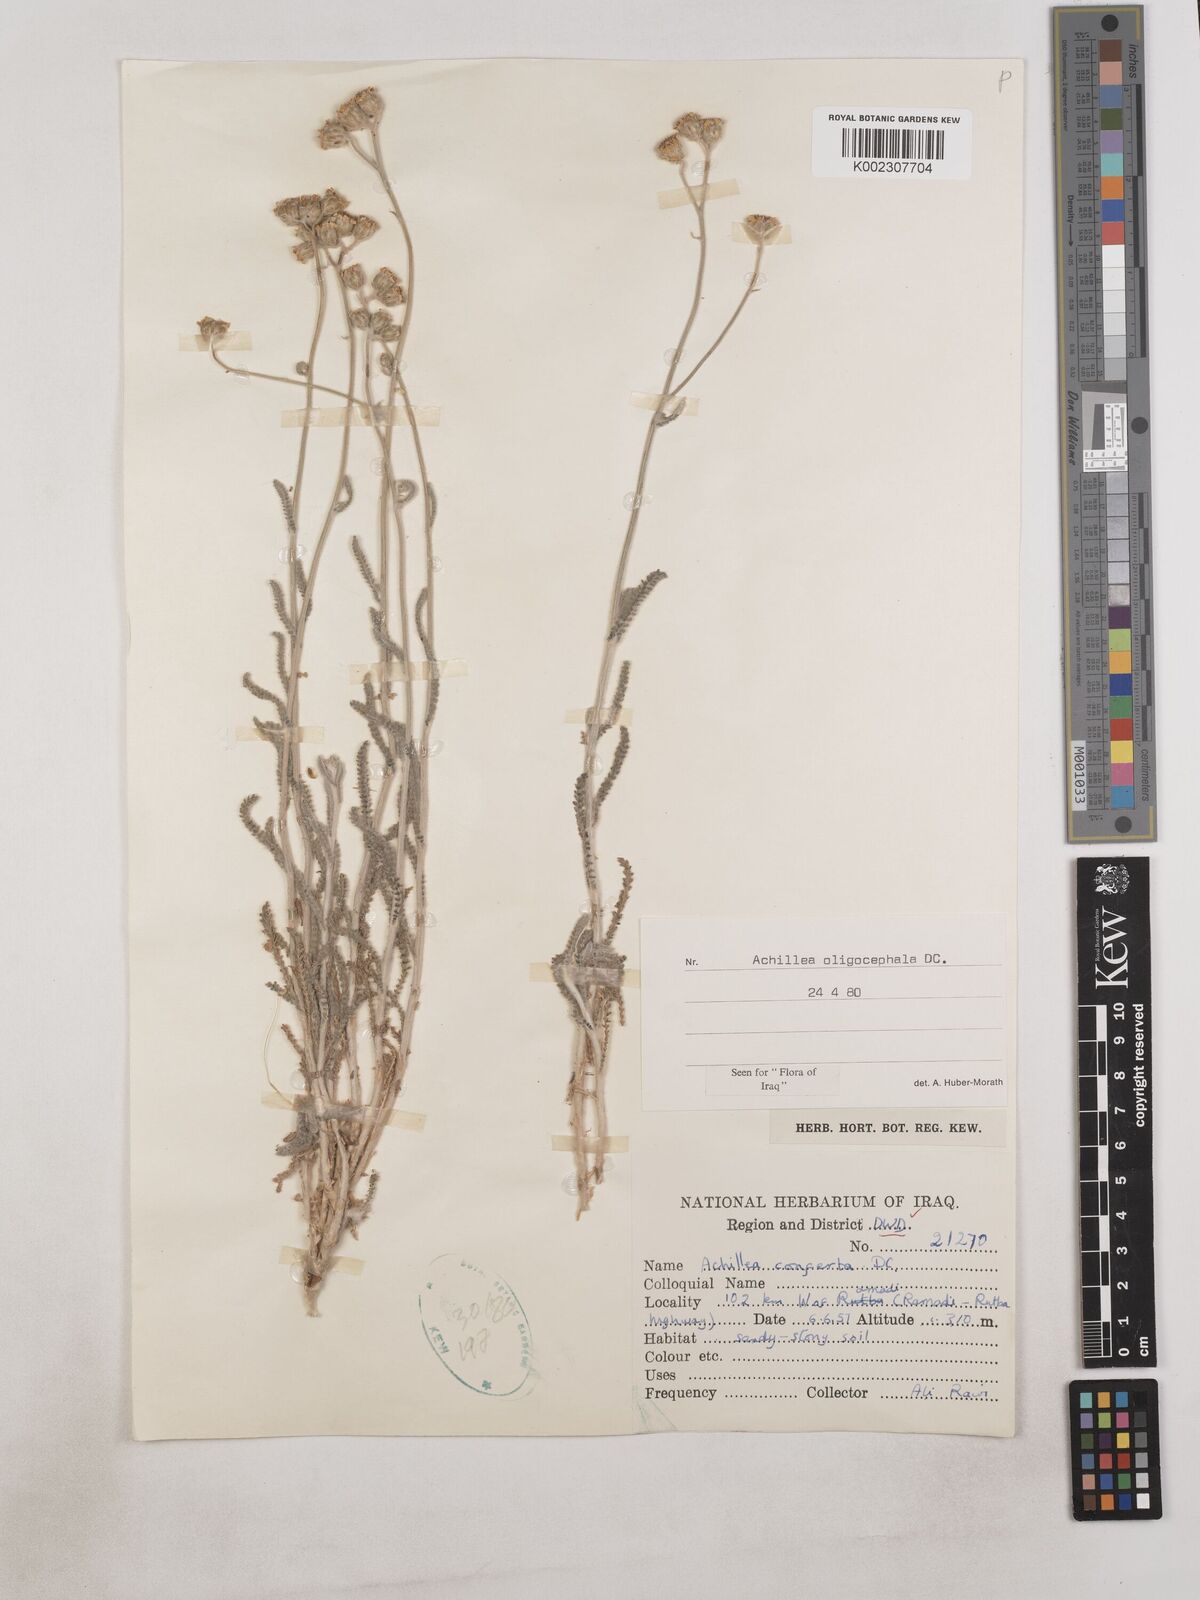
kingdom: Plantae
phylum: Tracheophyta
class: Magnoliopsida
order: Asterales
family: Asteraceae
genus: Achillea
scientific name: Achillea oligocephala
